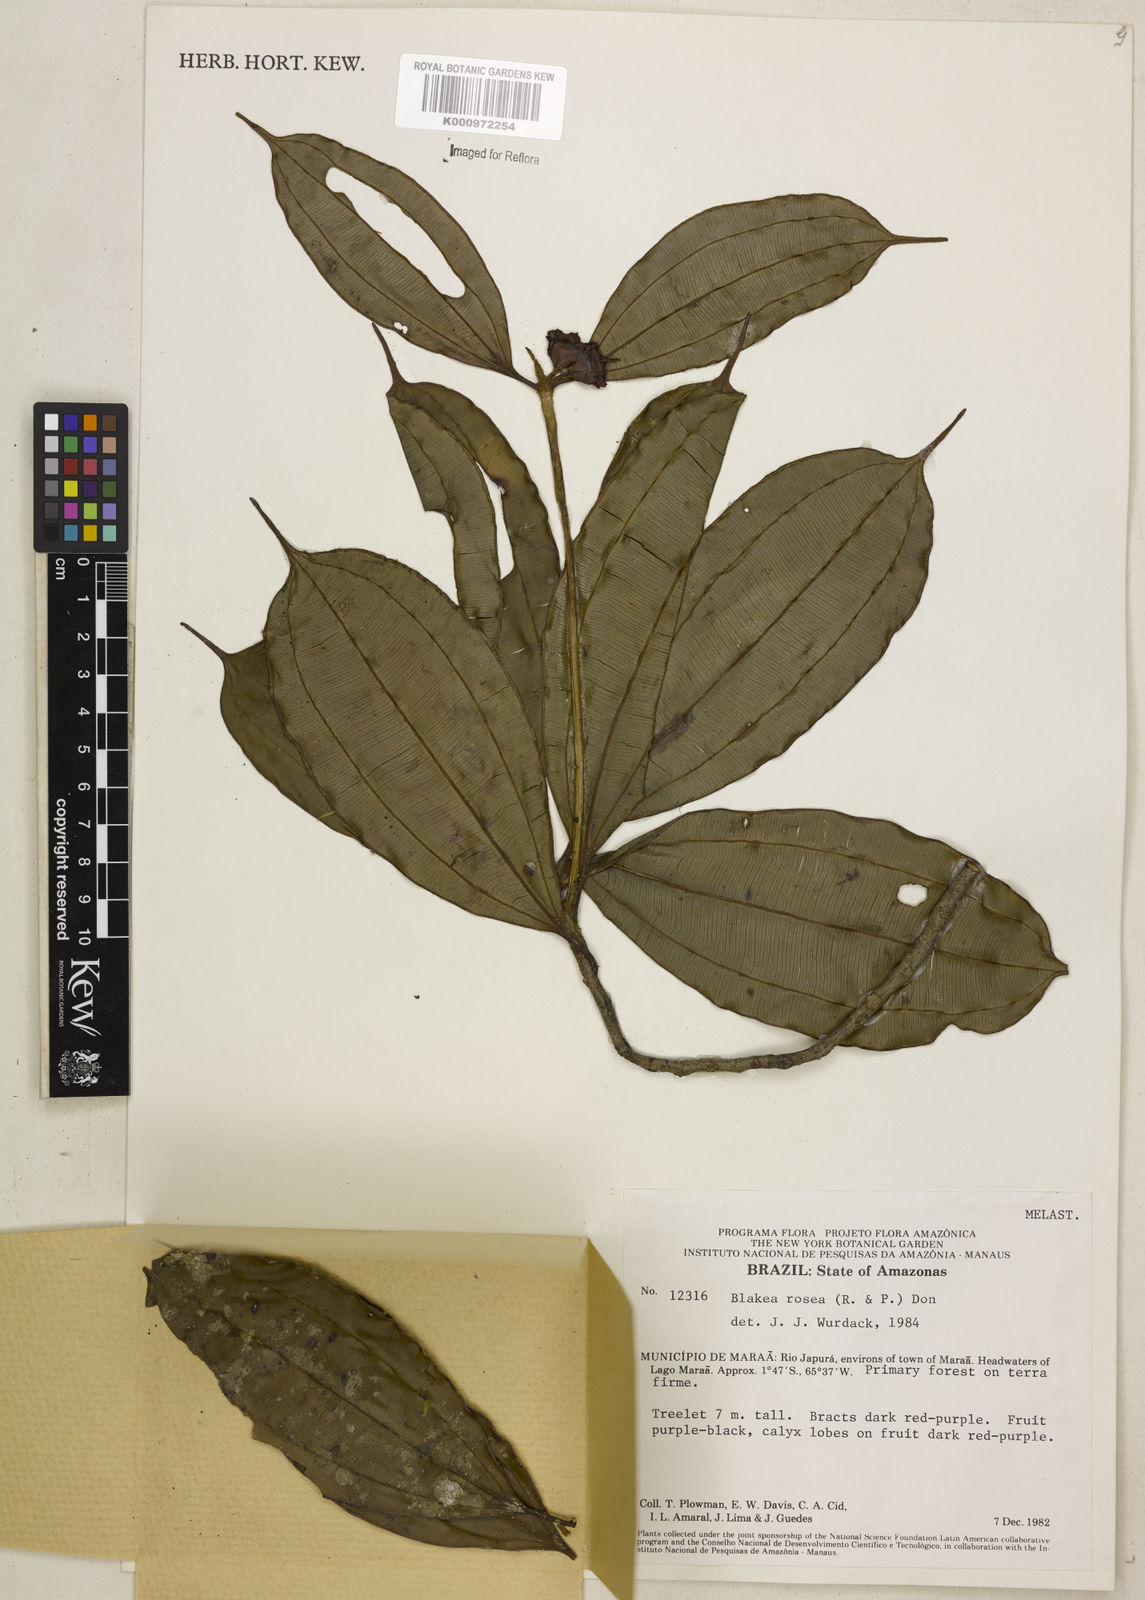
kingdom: Plantae
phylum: Tracheophyta
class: Magnoliopsida
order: Myrtales
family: Melastomataceae
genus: Blakea
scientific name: Blakea rosea
